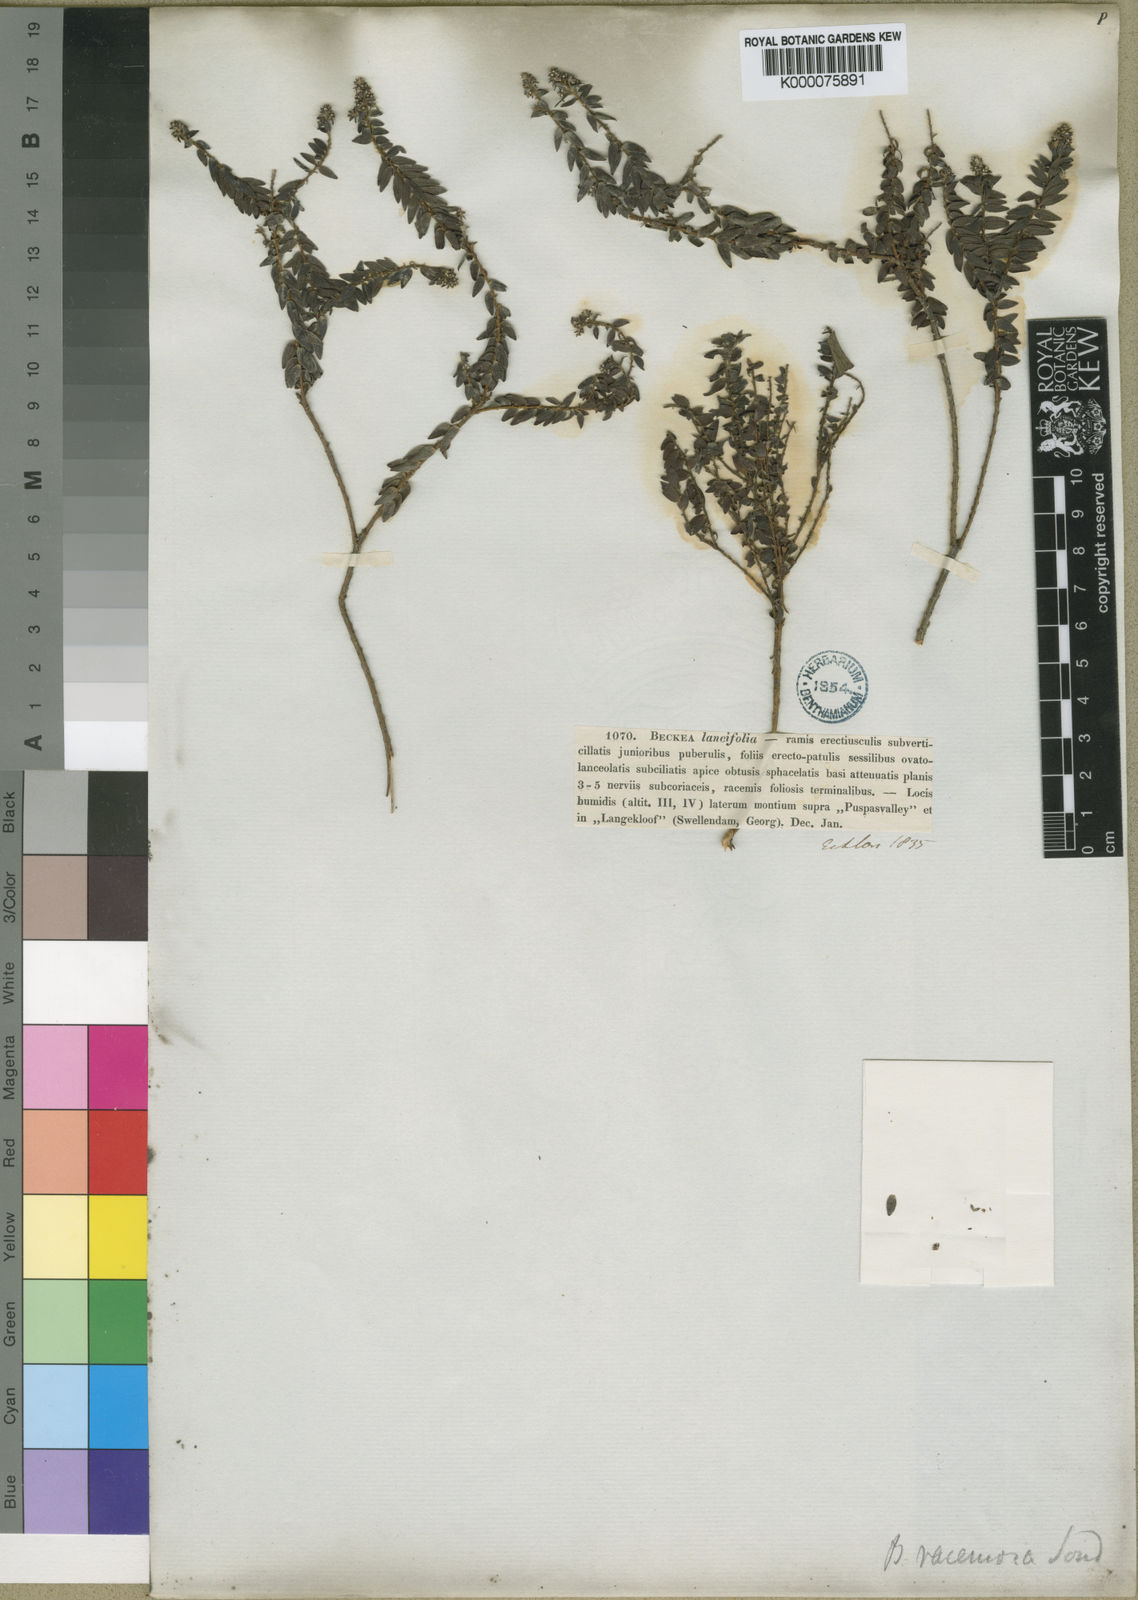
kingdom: Plantae
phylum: Tracheophyta
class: Magnoliopsida
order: Bruniales
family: Bruniaceae
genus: Brunia
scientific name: Brunia cordata
